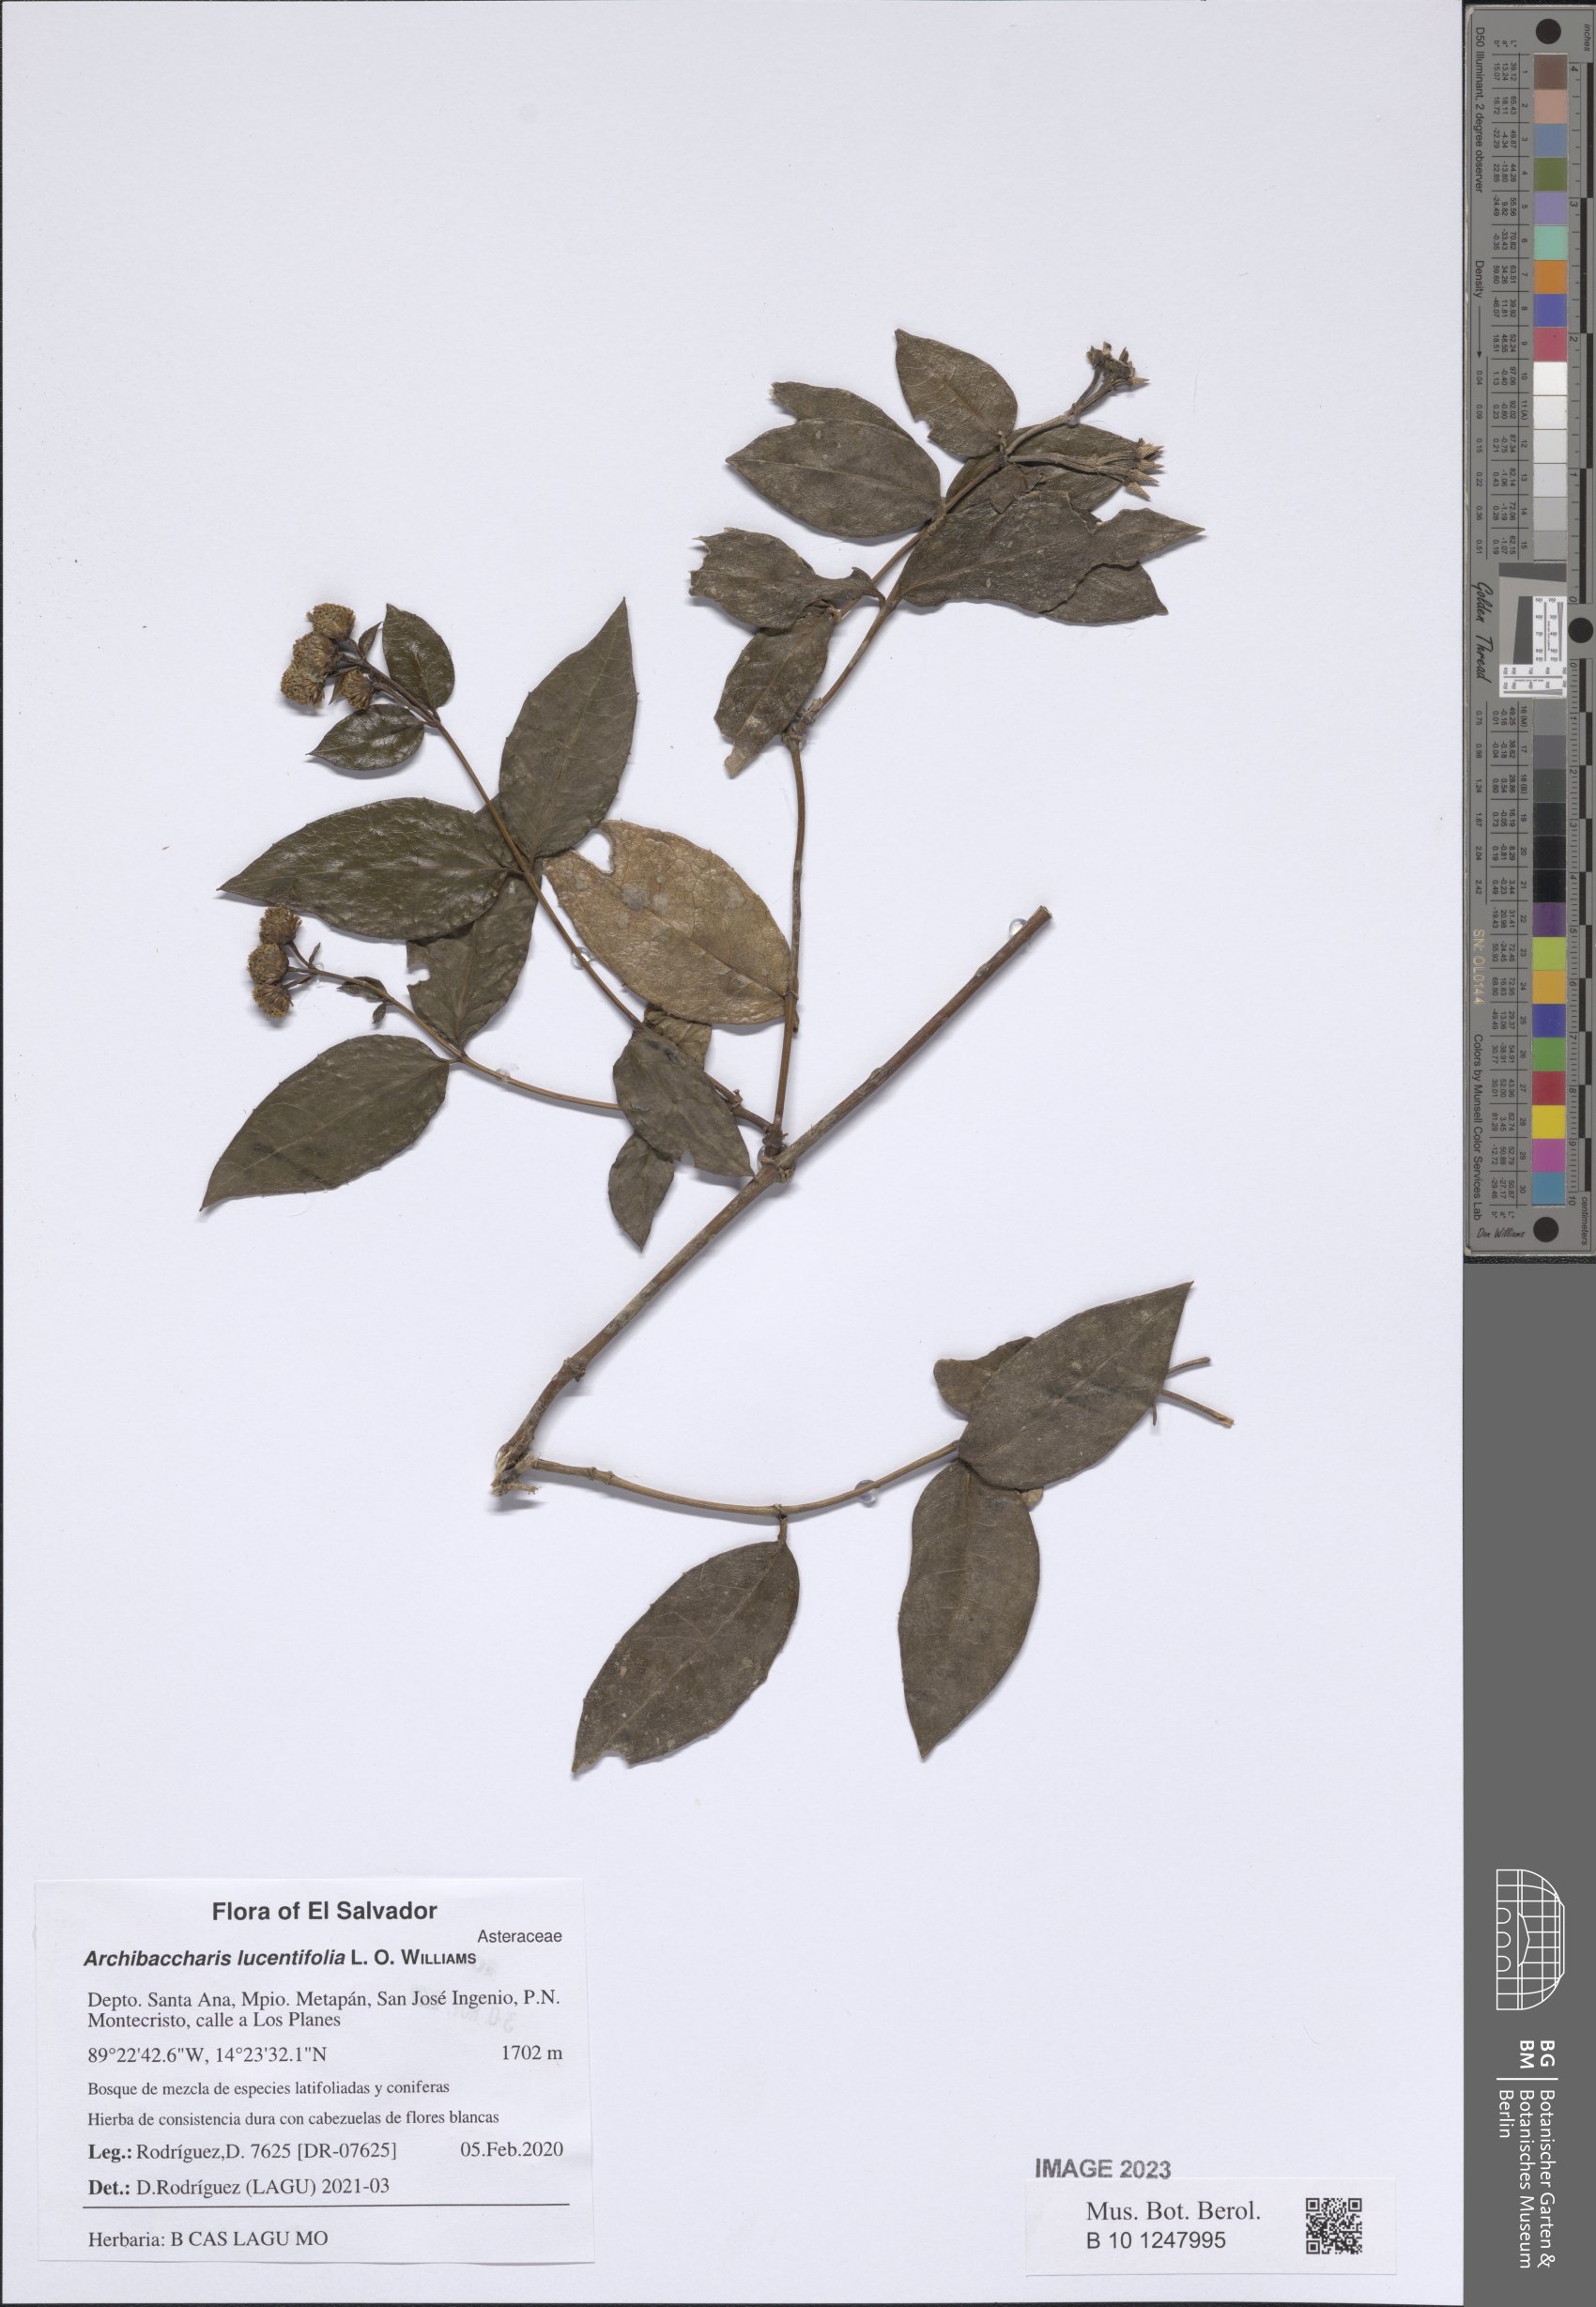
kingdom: Plantae
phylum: Tracheophyta
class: Magnoliopsida
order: Asterales
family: Asteraceae
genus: Archibaccharis
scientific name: Archibaccharis lucentifolia
